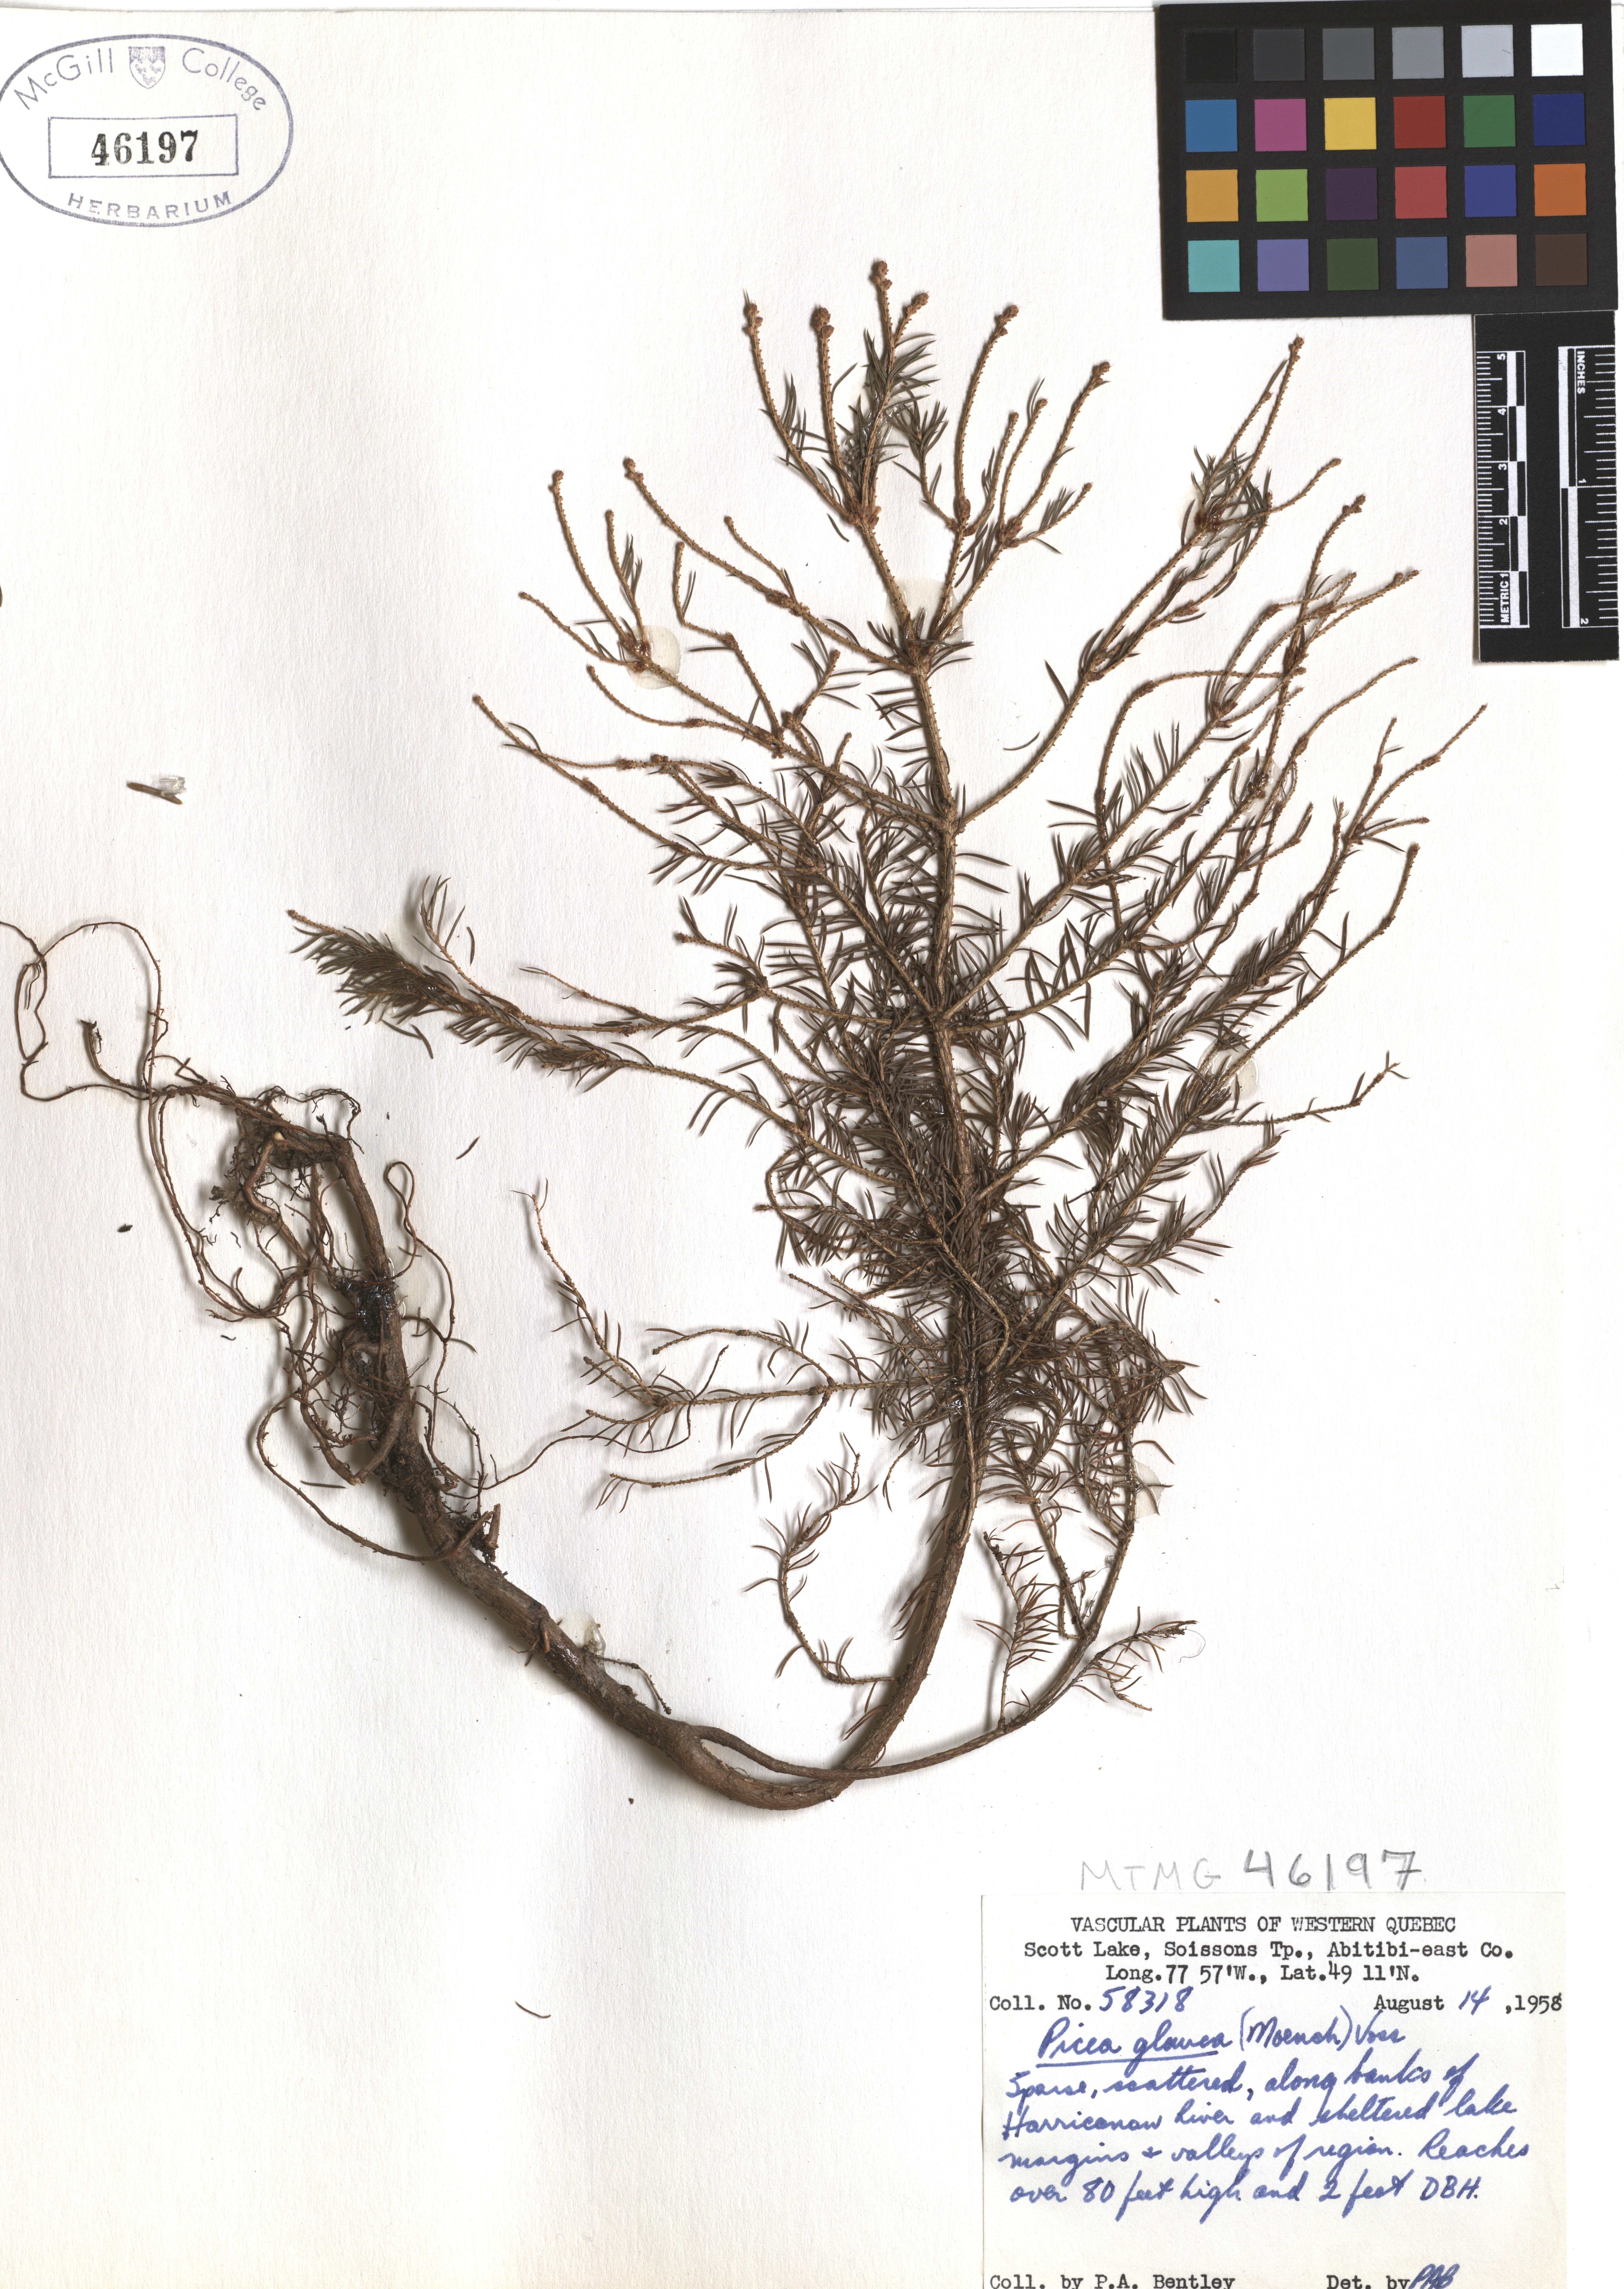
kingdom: Plantae
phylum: Tracheophyta
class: Pinopsida
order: Pinales
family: Pinaceae
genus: Picea
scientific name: Picea glauca
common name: White spruce
